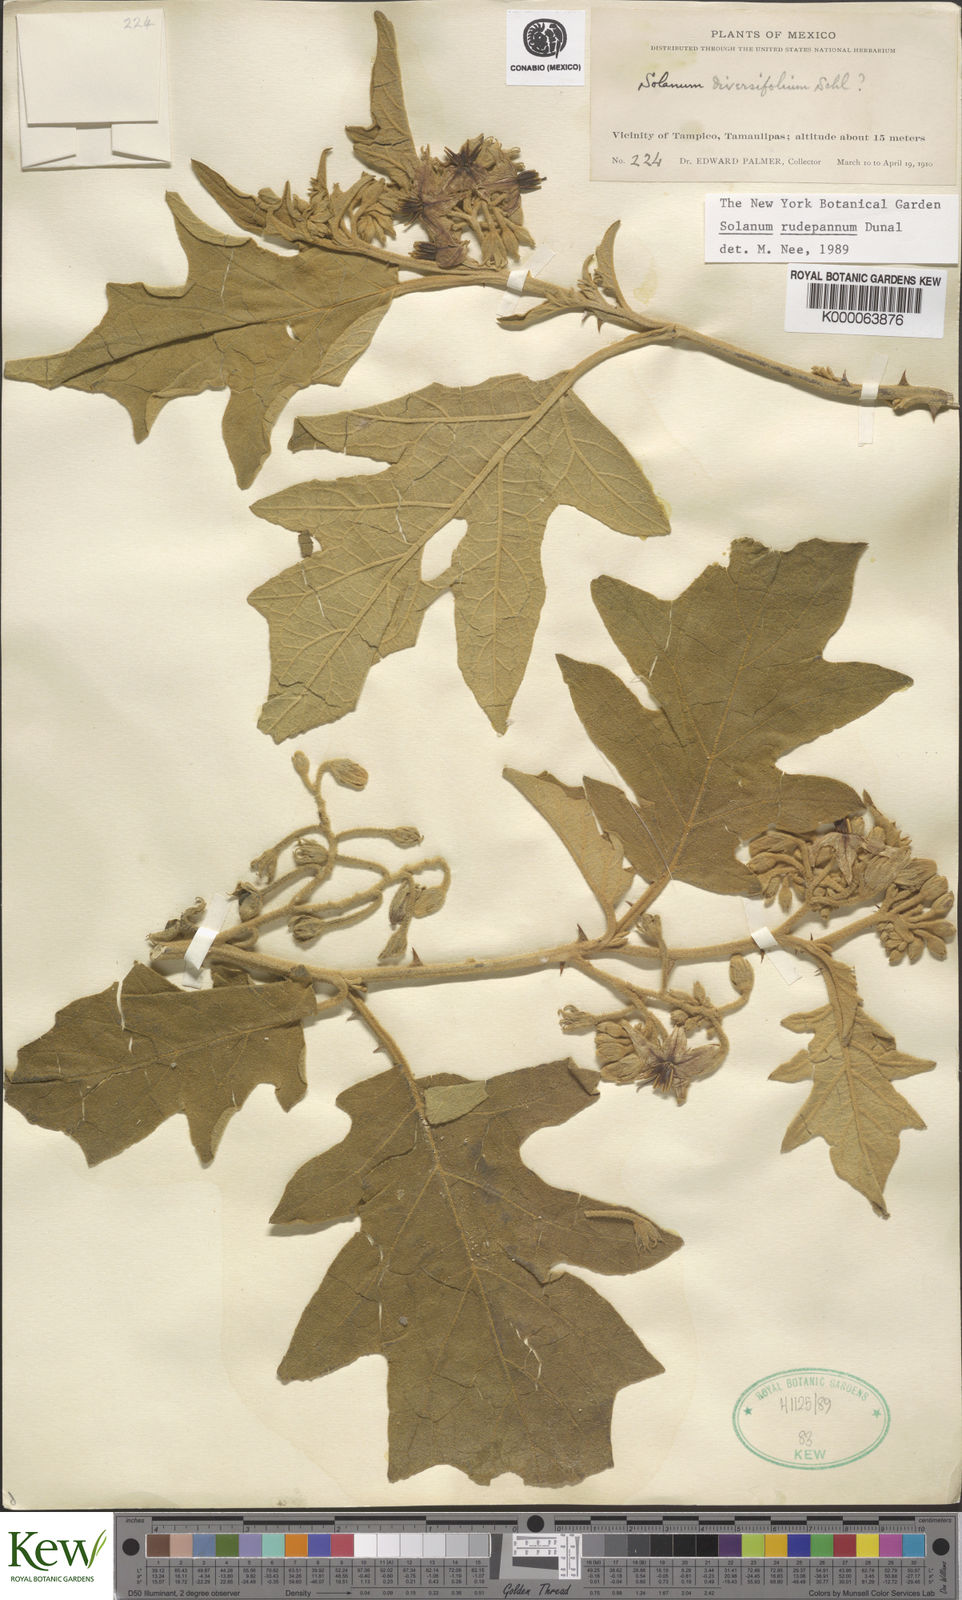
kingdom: Plantae
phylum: Tracheophyta
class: Magnoliopsida
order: Solanales
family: Solanaceae
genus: Solanum
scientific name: Solanum rude-pannum
